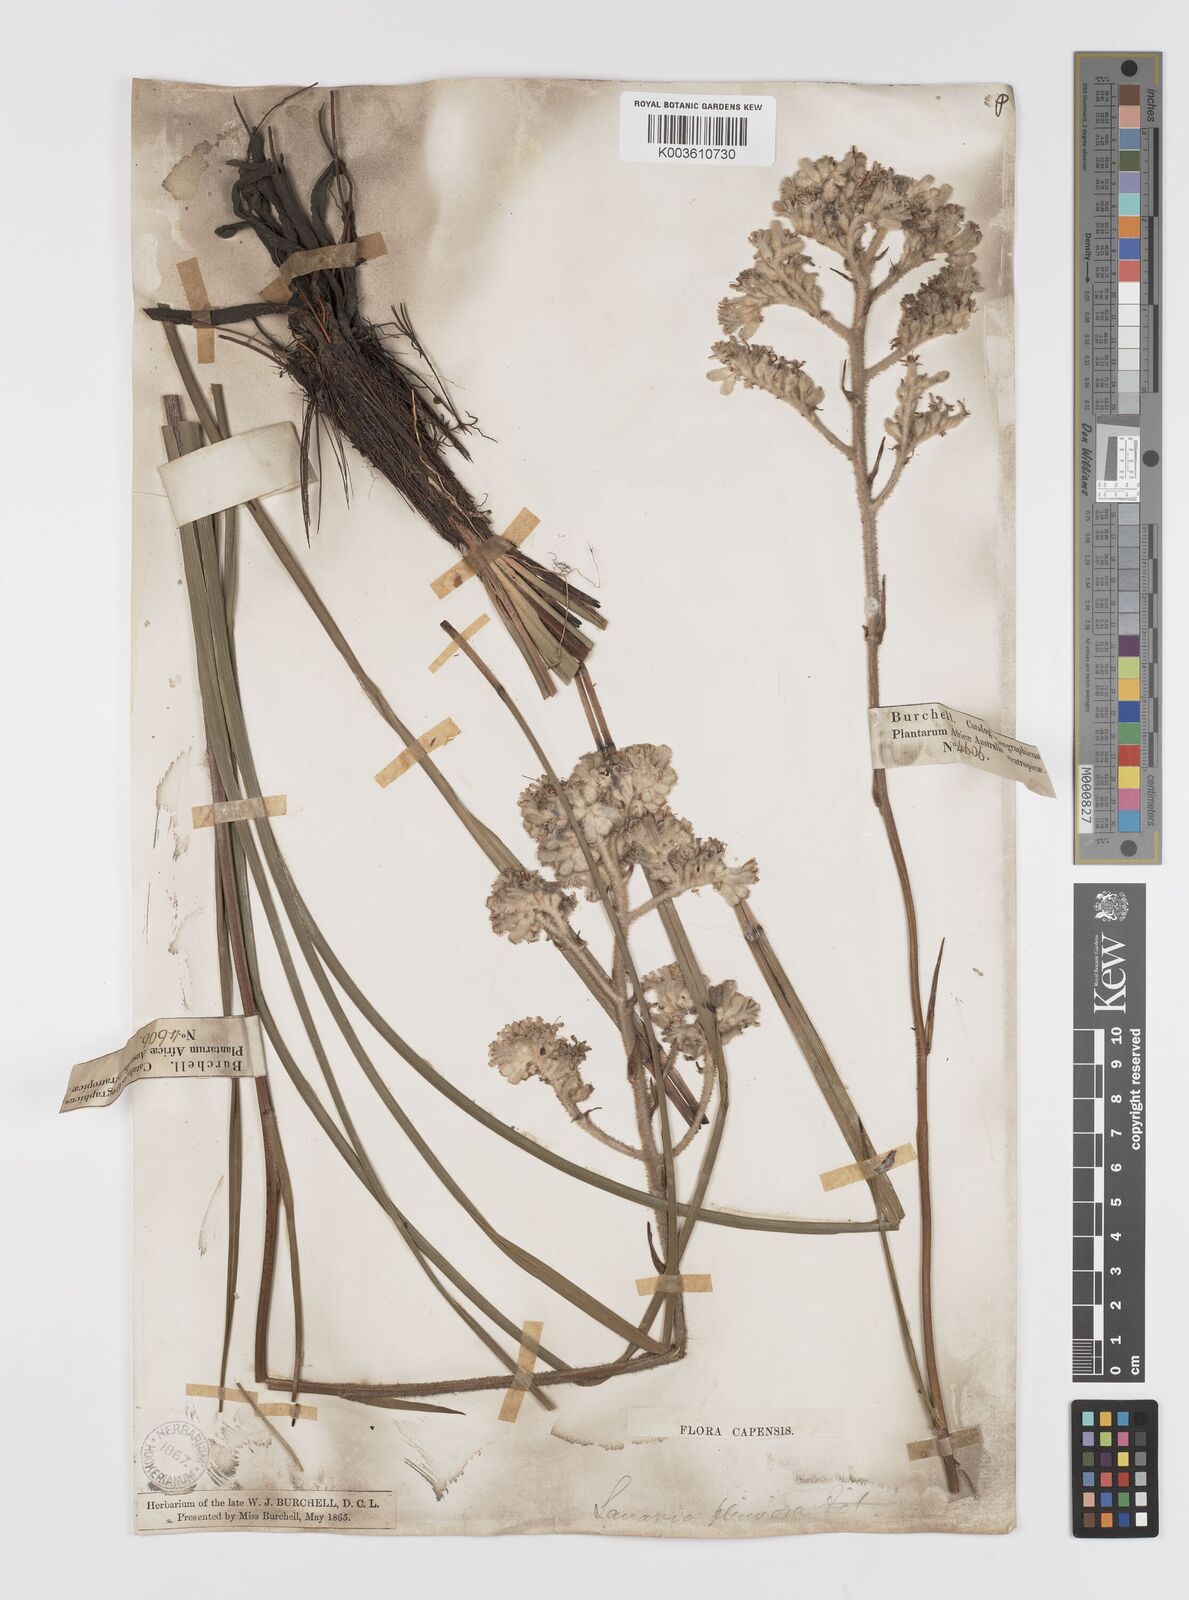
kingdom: Plantae
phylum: Tracheophyta
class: Liliopsida
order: Asparagales
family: Lanariaceae
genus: Lanaria
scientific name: Lanaria lanata
